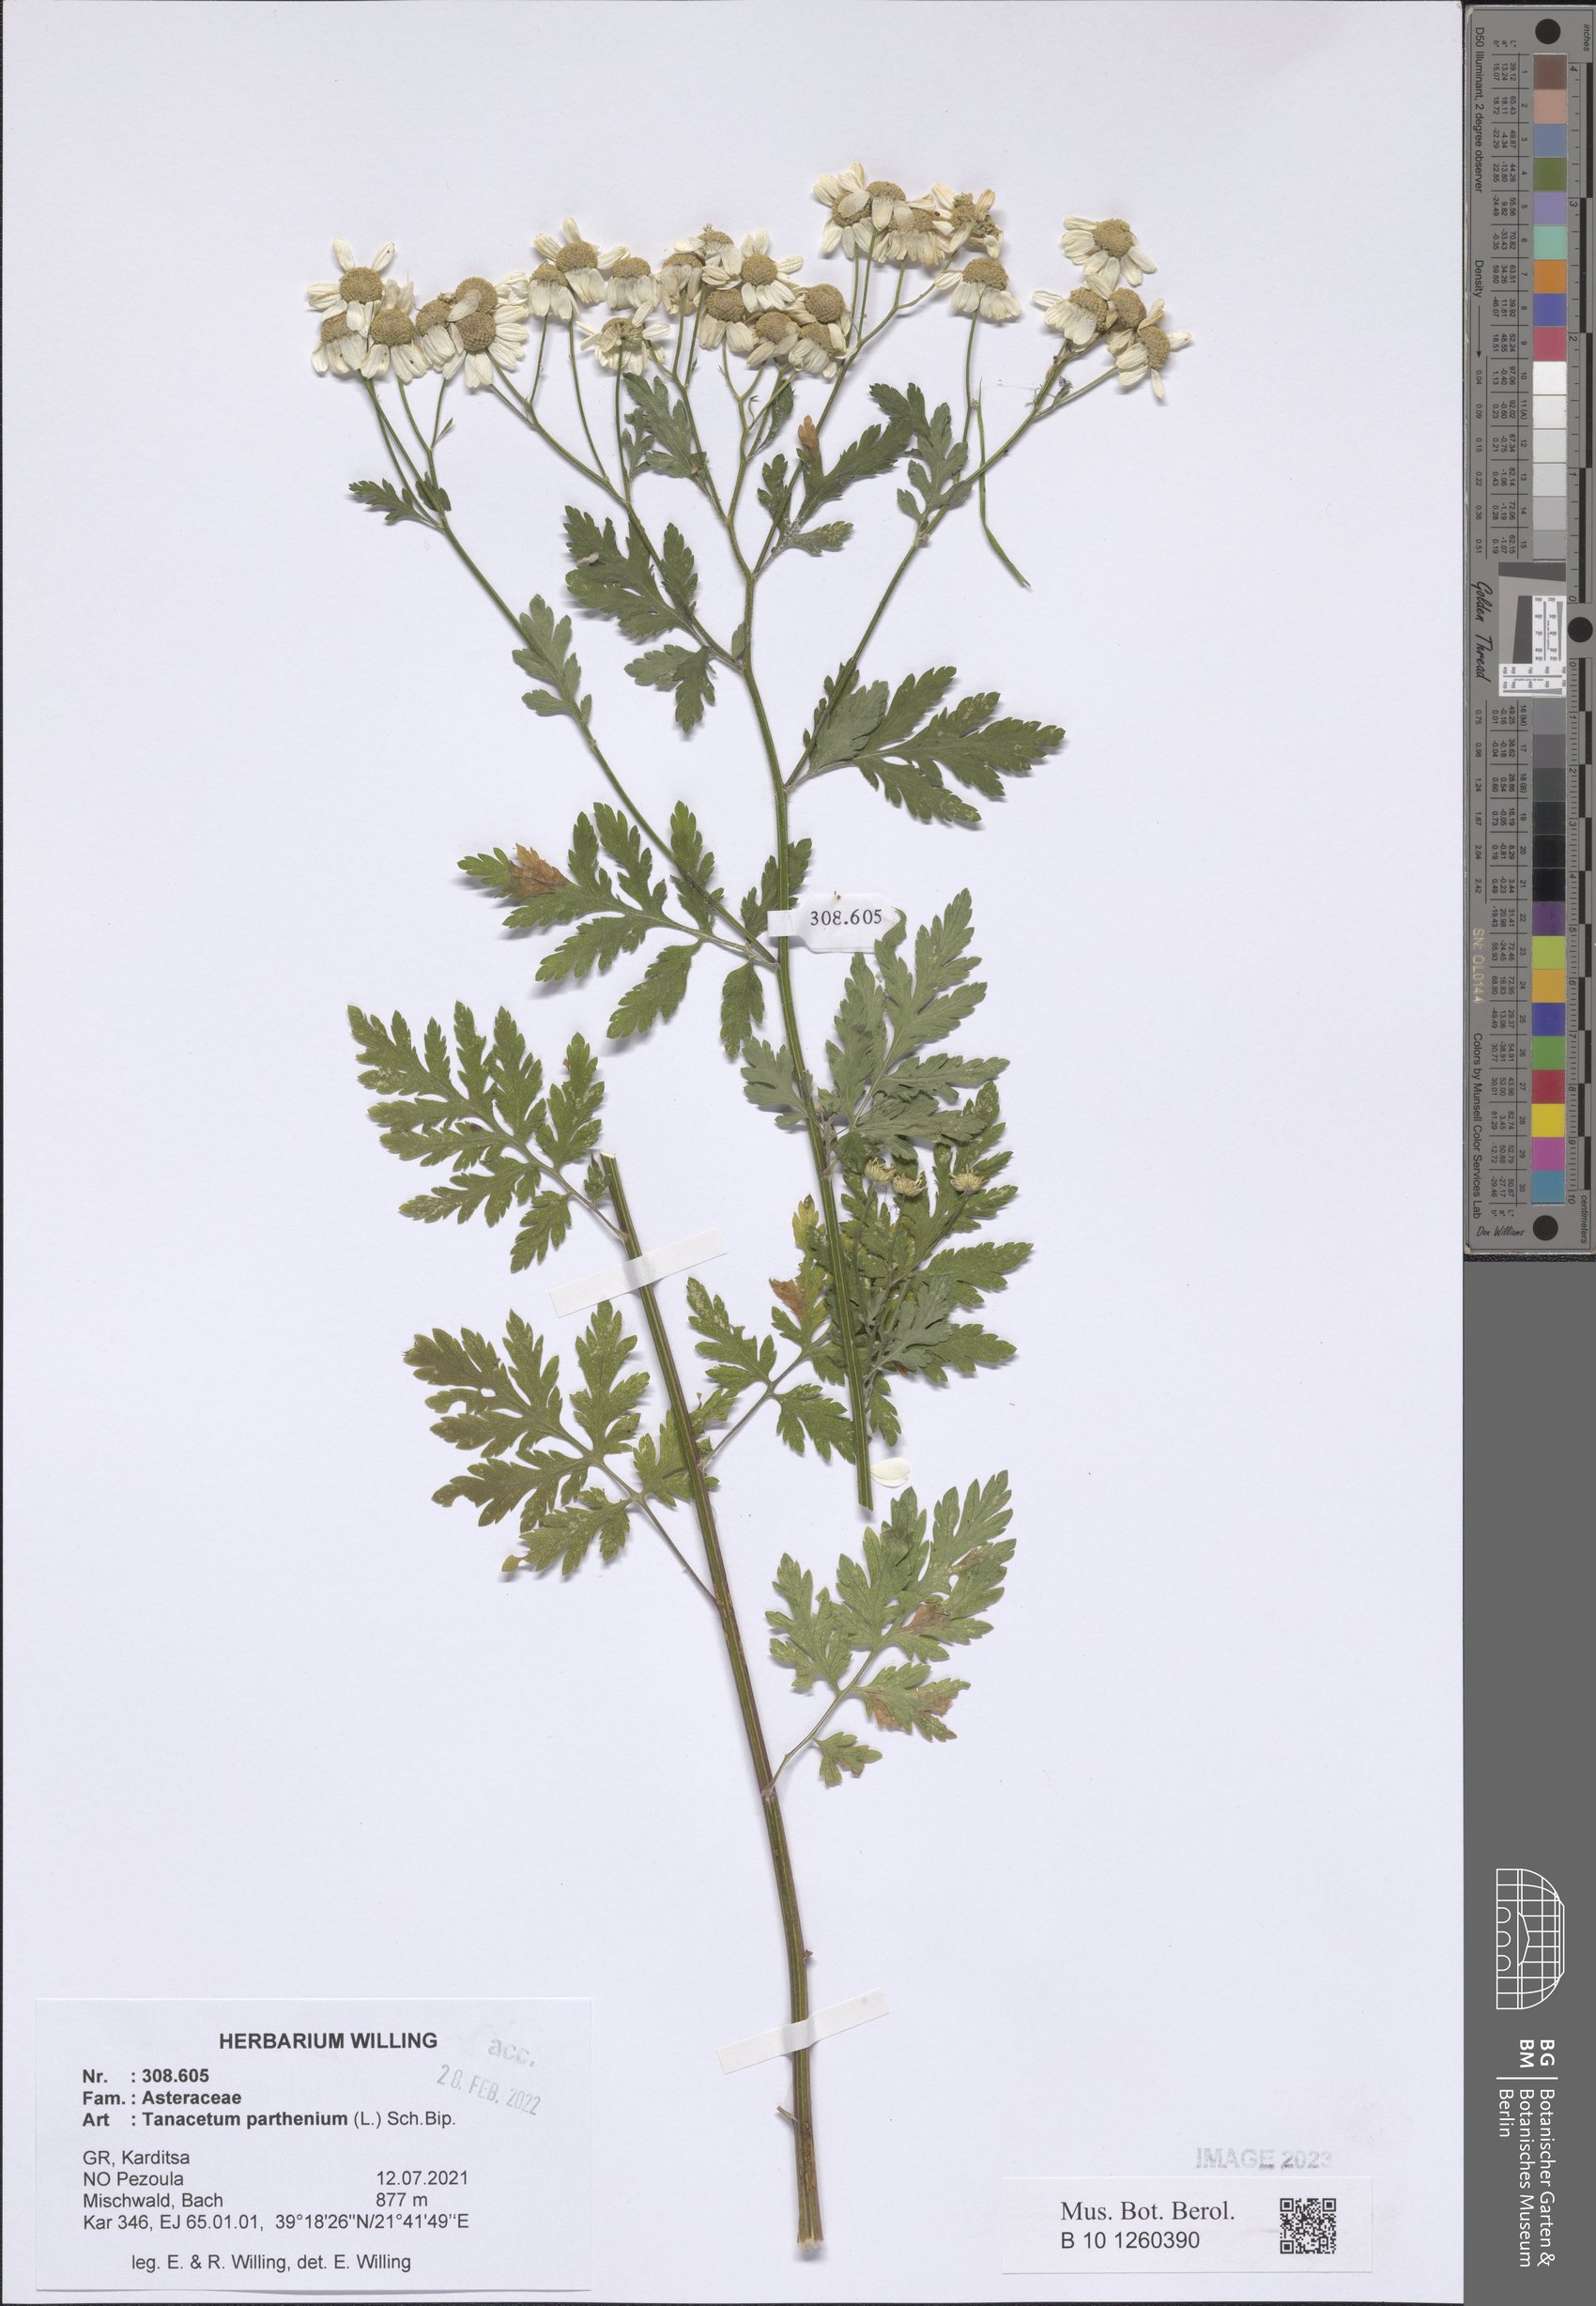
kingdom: Plantae
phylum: Tracheophyta
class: Magnoliopsida
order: Asterales
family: Asteraceae
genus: Tanacetum
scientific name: Tanacetum parthenium
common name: Feverfew
